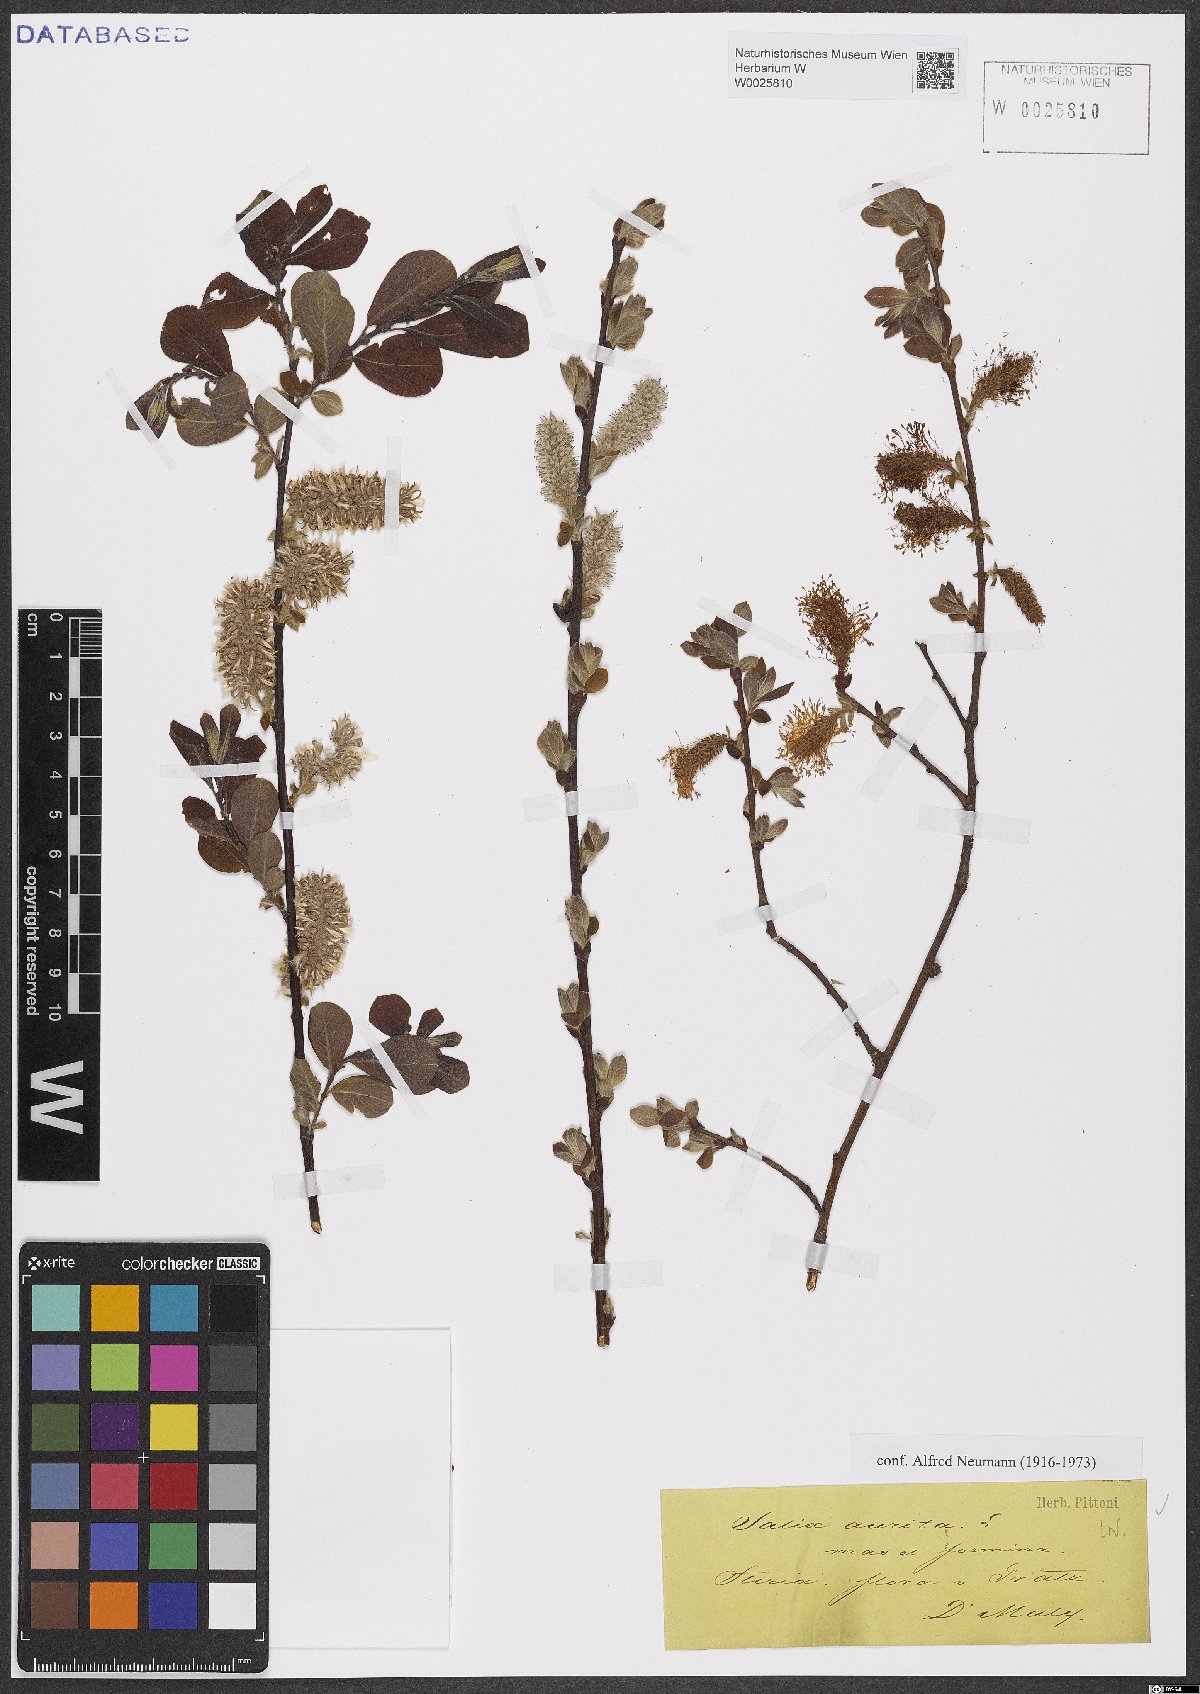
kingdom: Plantae
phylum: Tracheophyta
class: Magnoliopsida
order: Malpighiales
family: Salicaceae
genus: Salix
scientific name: Salix aurita
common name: Eared willow
